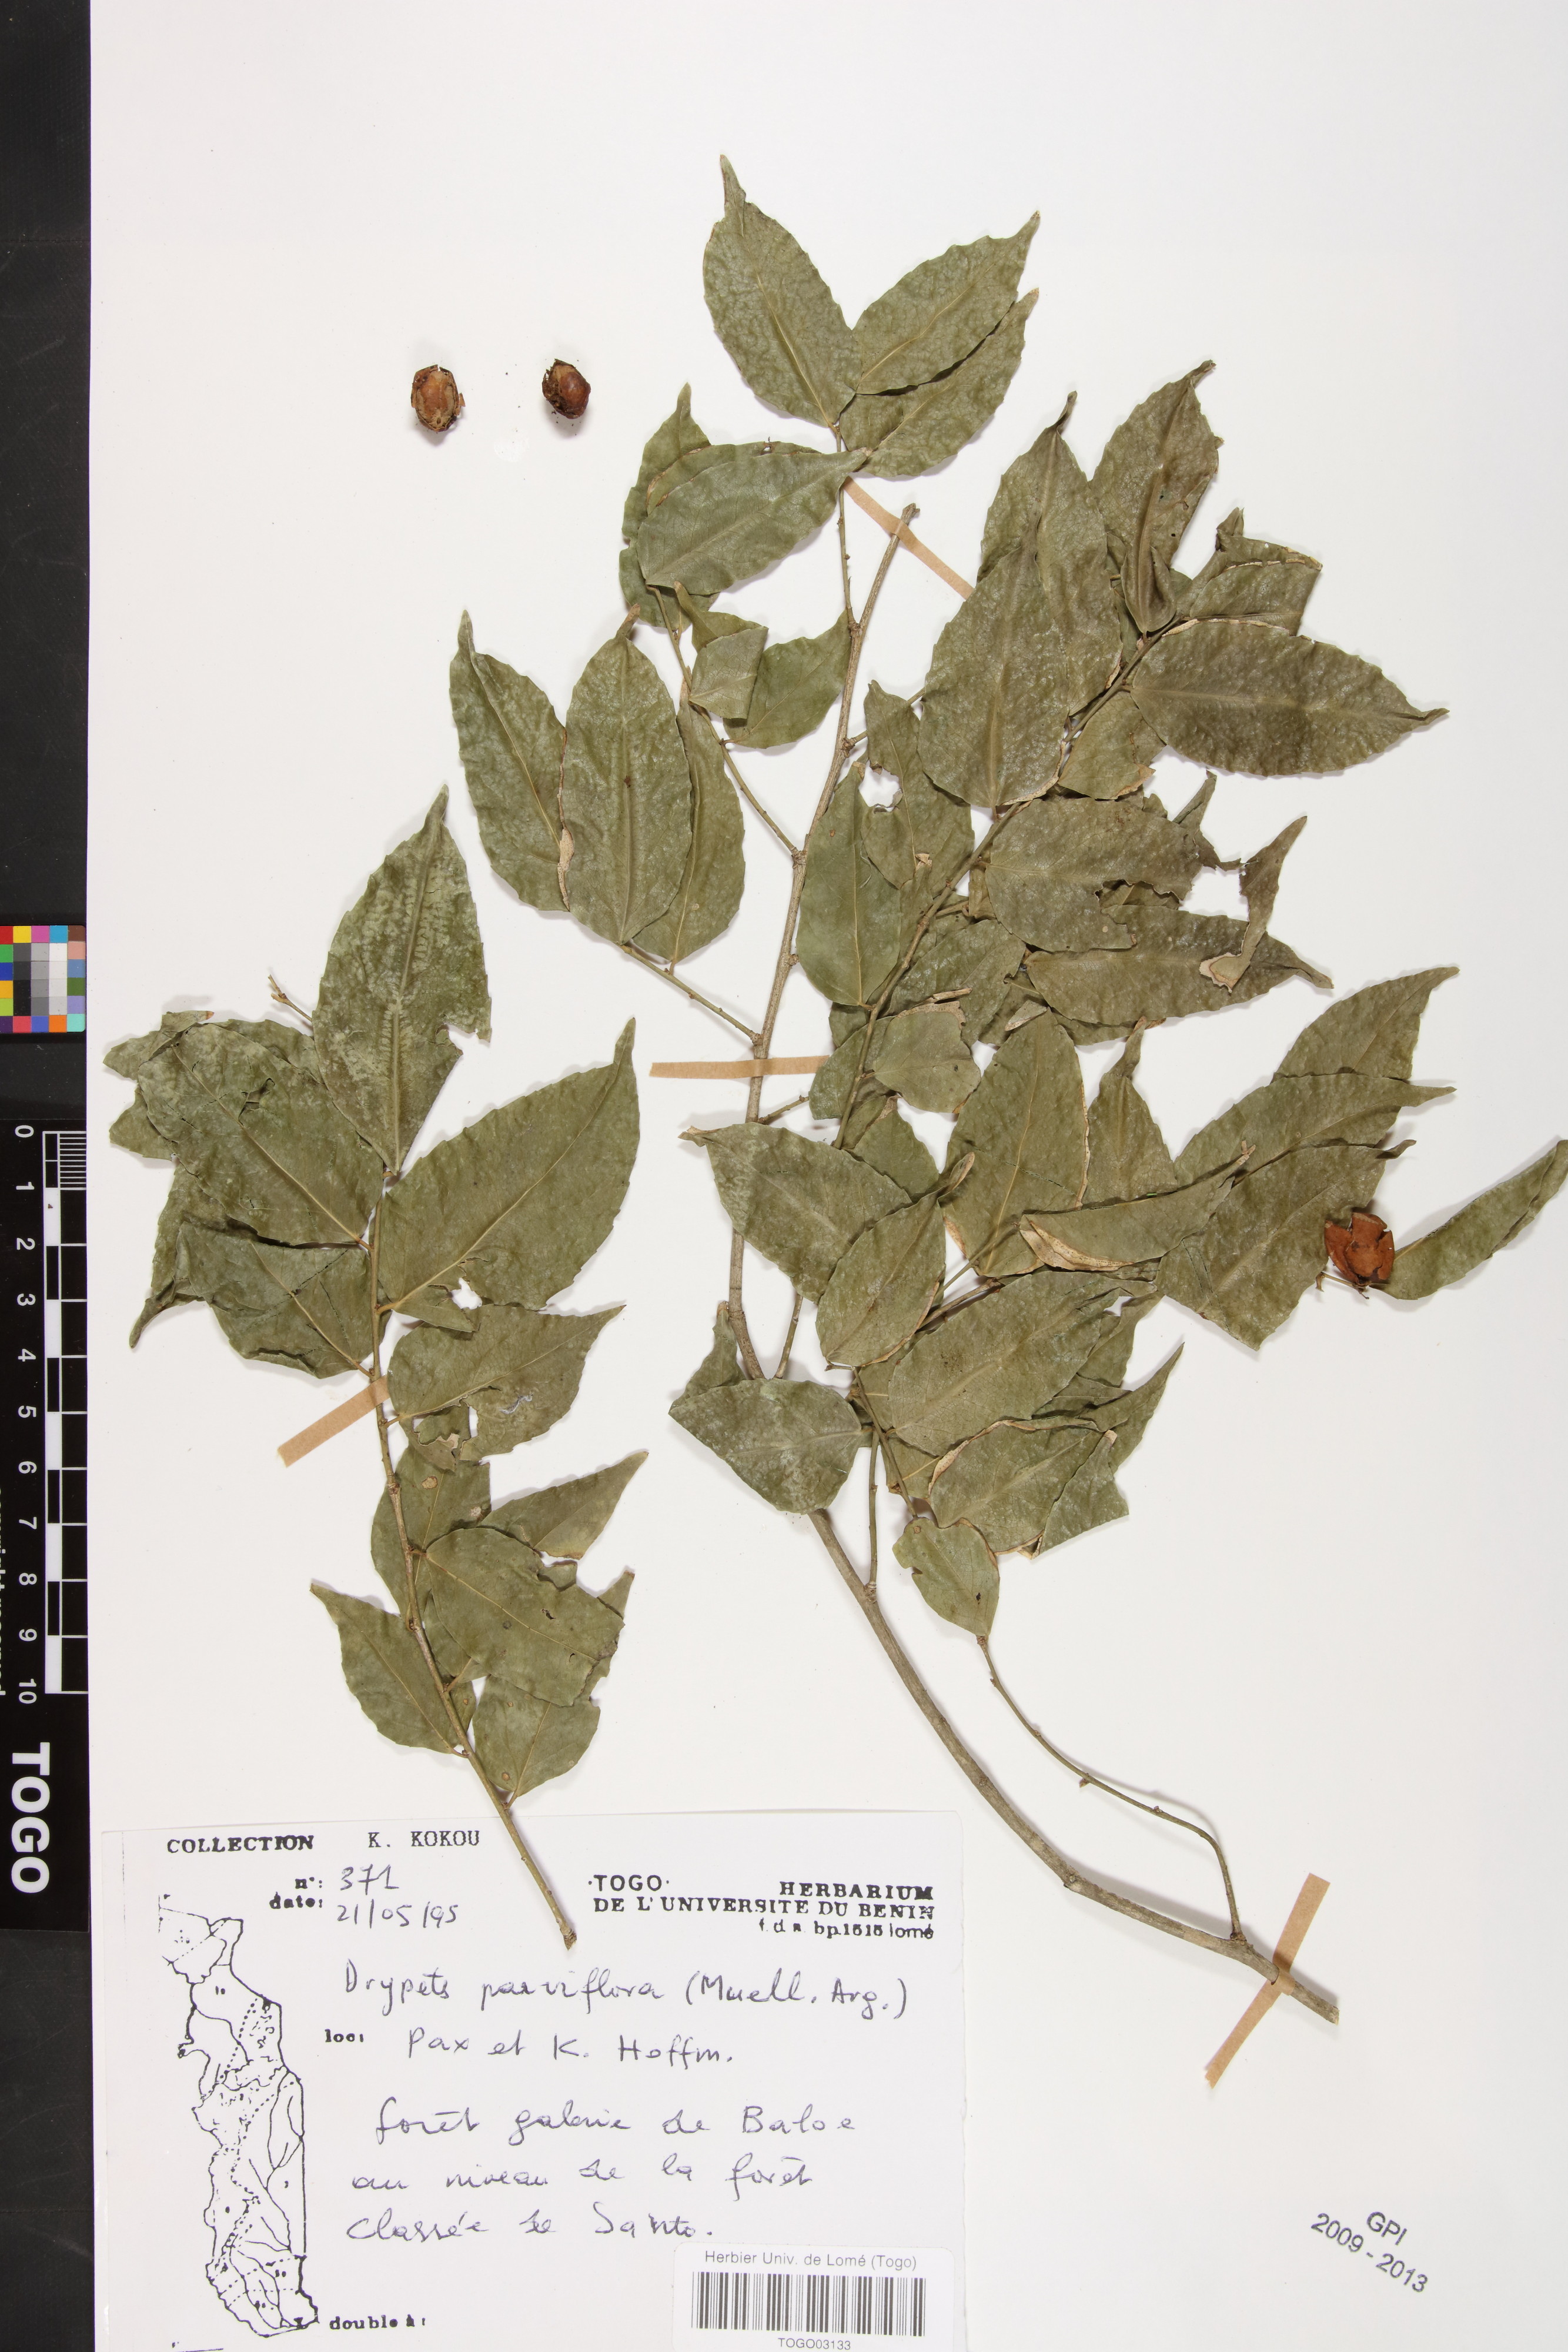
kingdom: Plantae
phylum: Tracheophyta
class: Magnoliopsida
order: Malpighiales
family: Putranjivaceae
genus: Drypetes
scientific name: Drypetes parvifolia
